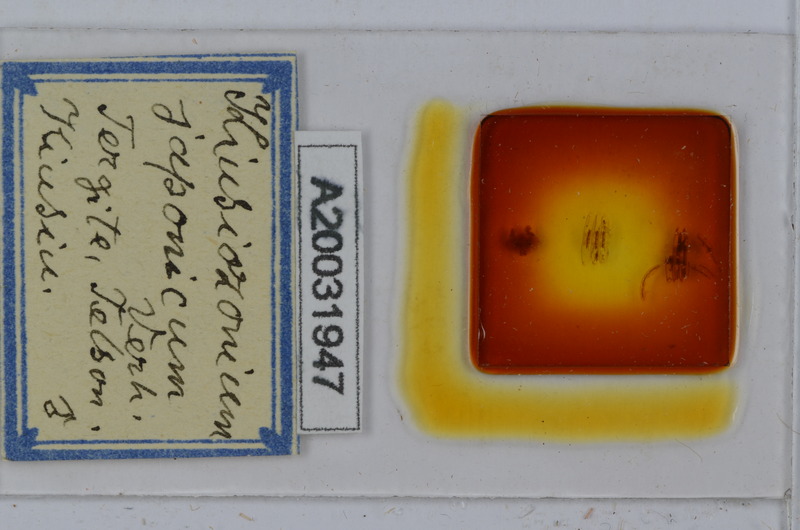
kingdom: Animalia
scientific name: Animalia
